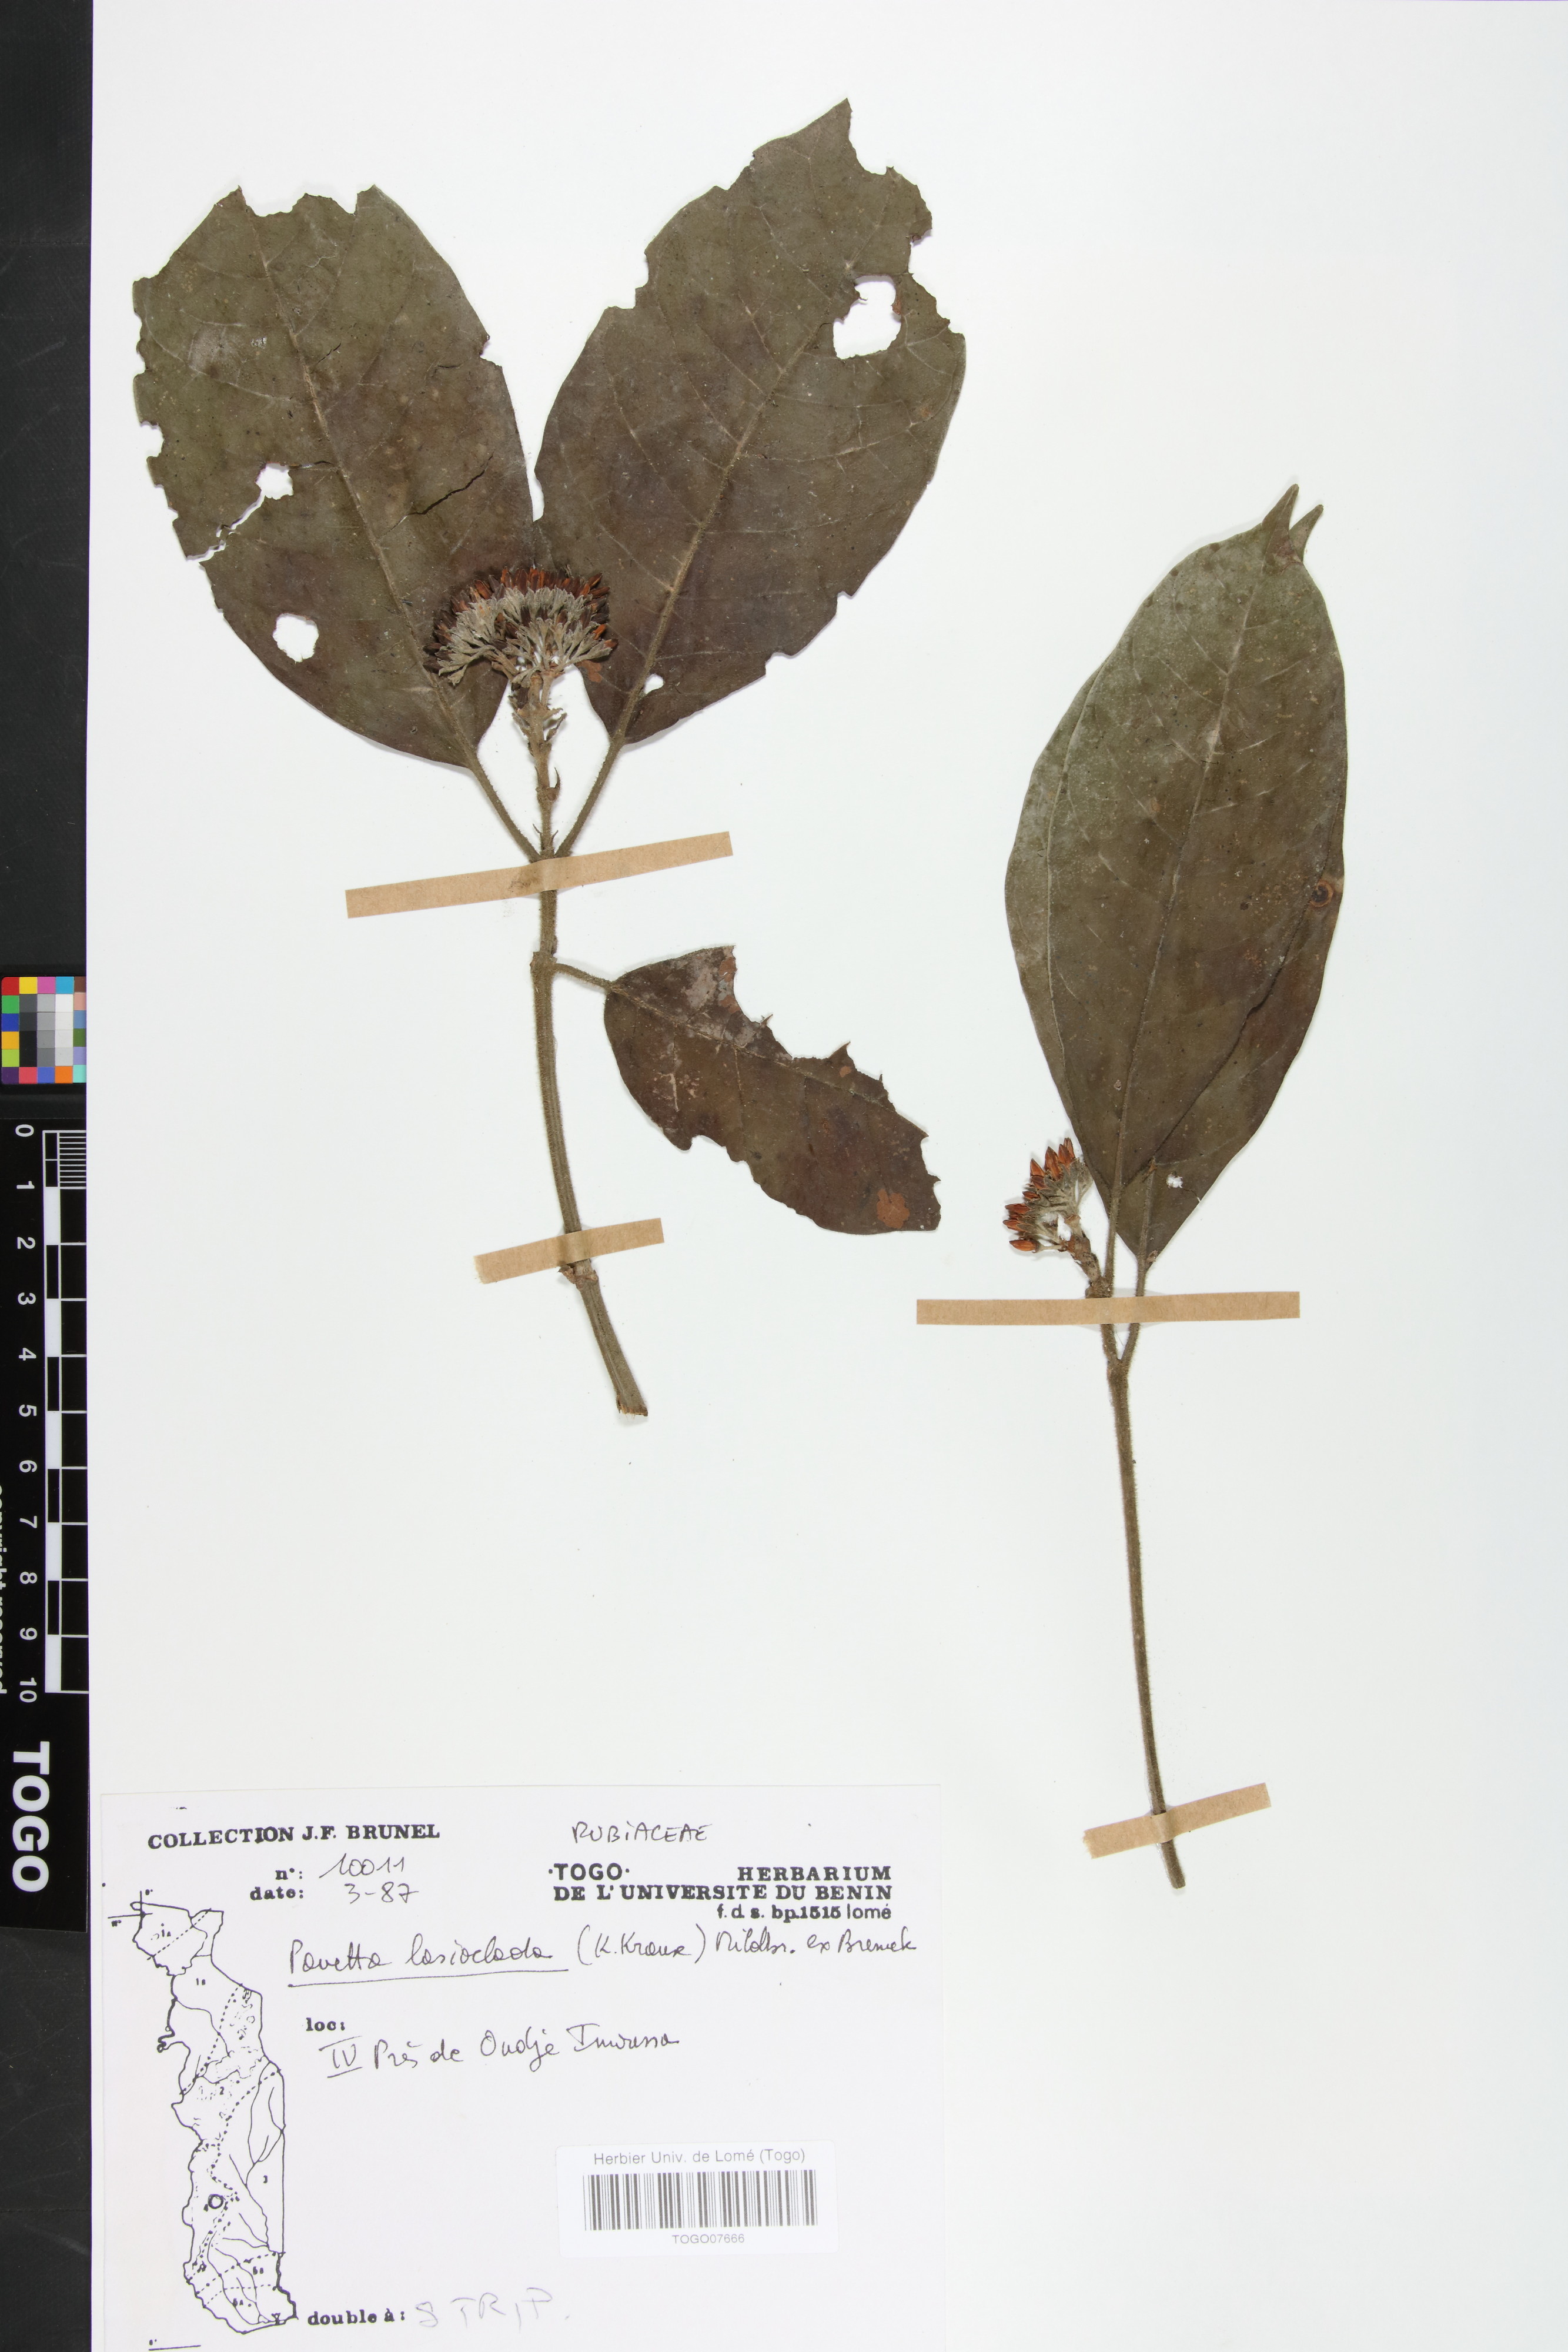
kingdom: Plantae
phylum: Tracheophyta
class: Magnoliopsida
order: Gentianales
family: Rubiaceae
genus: Pavetta
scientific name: Pavetta lasioclada
